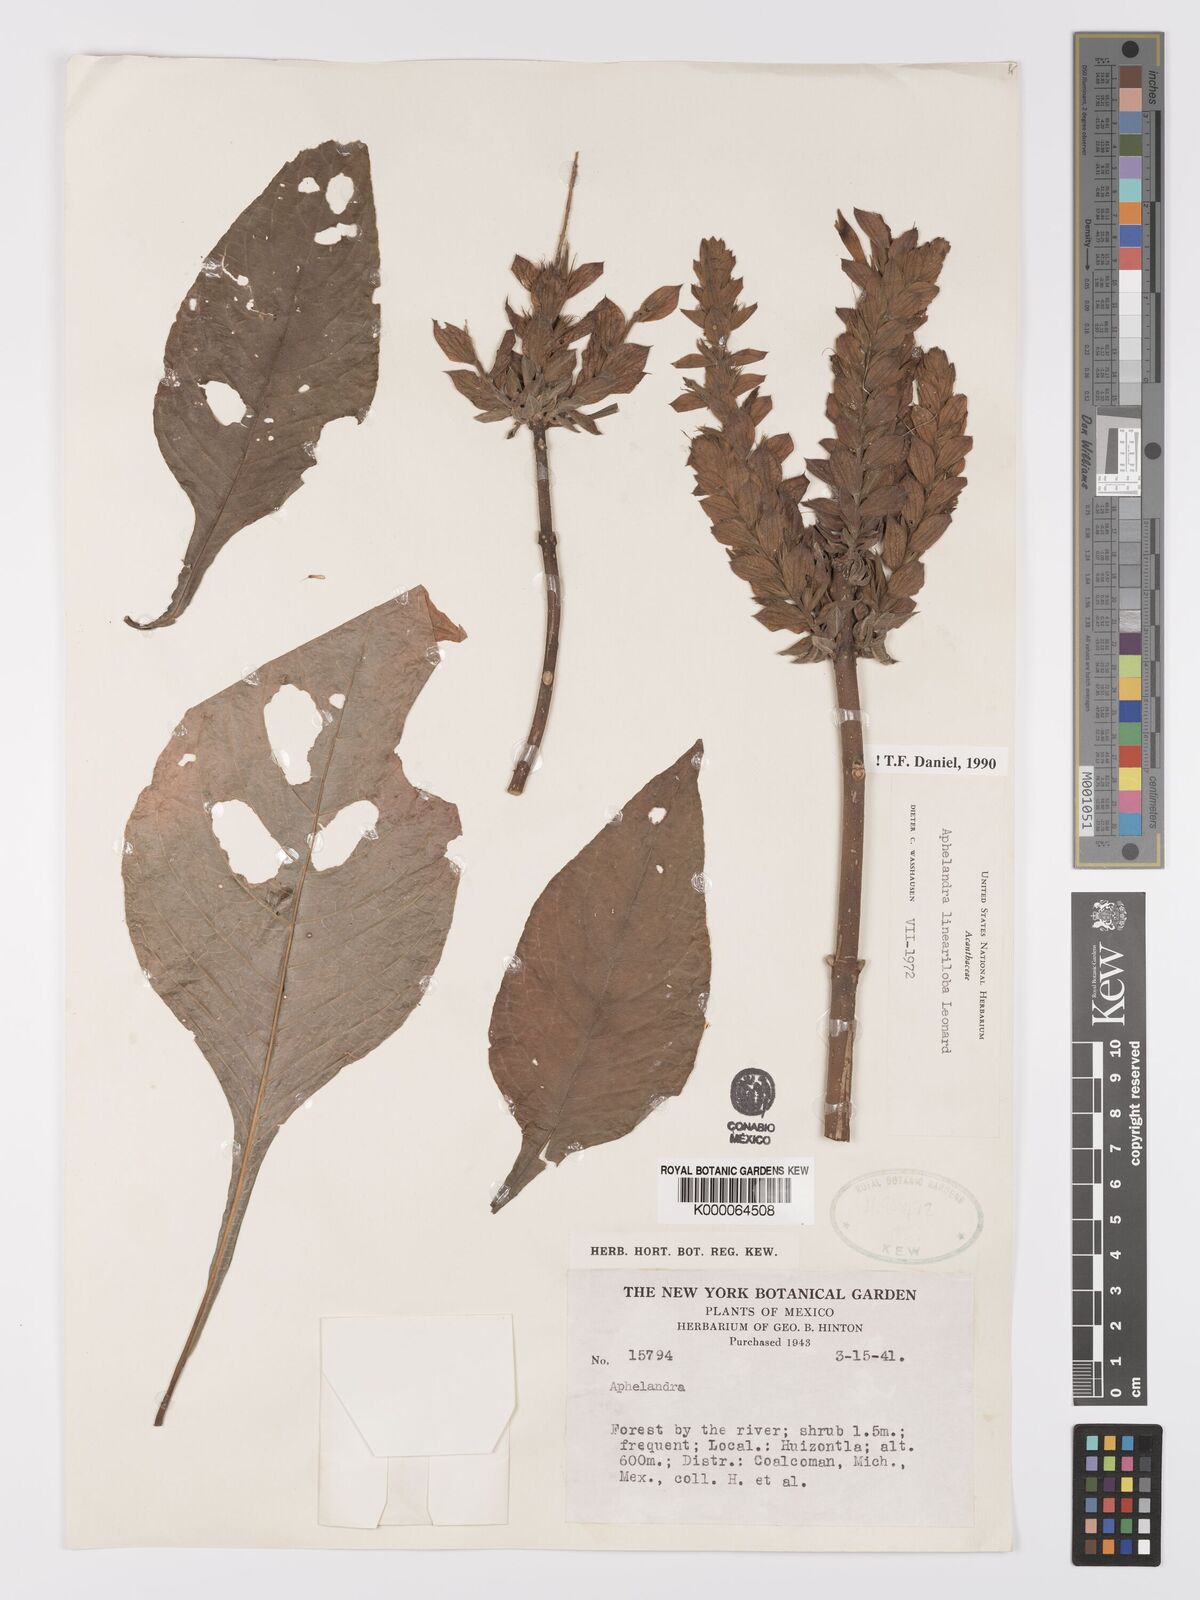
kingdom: Plantae
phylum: Tracheophyta
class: Magnoliopsida
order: Lamiales
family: Acanthaceae
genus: Aphelandra
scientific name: Aphelandra lineariloba
